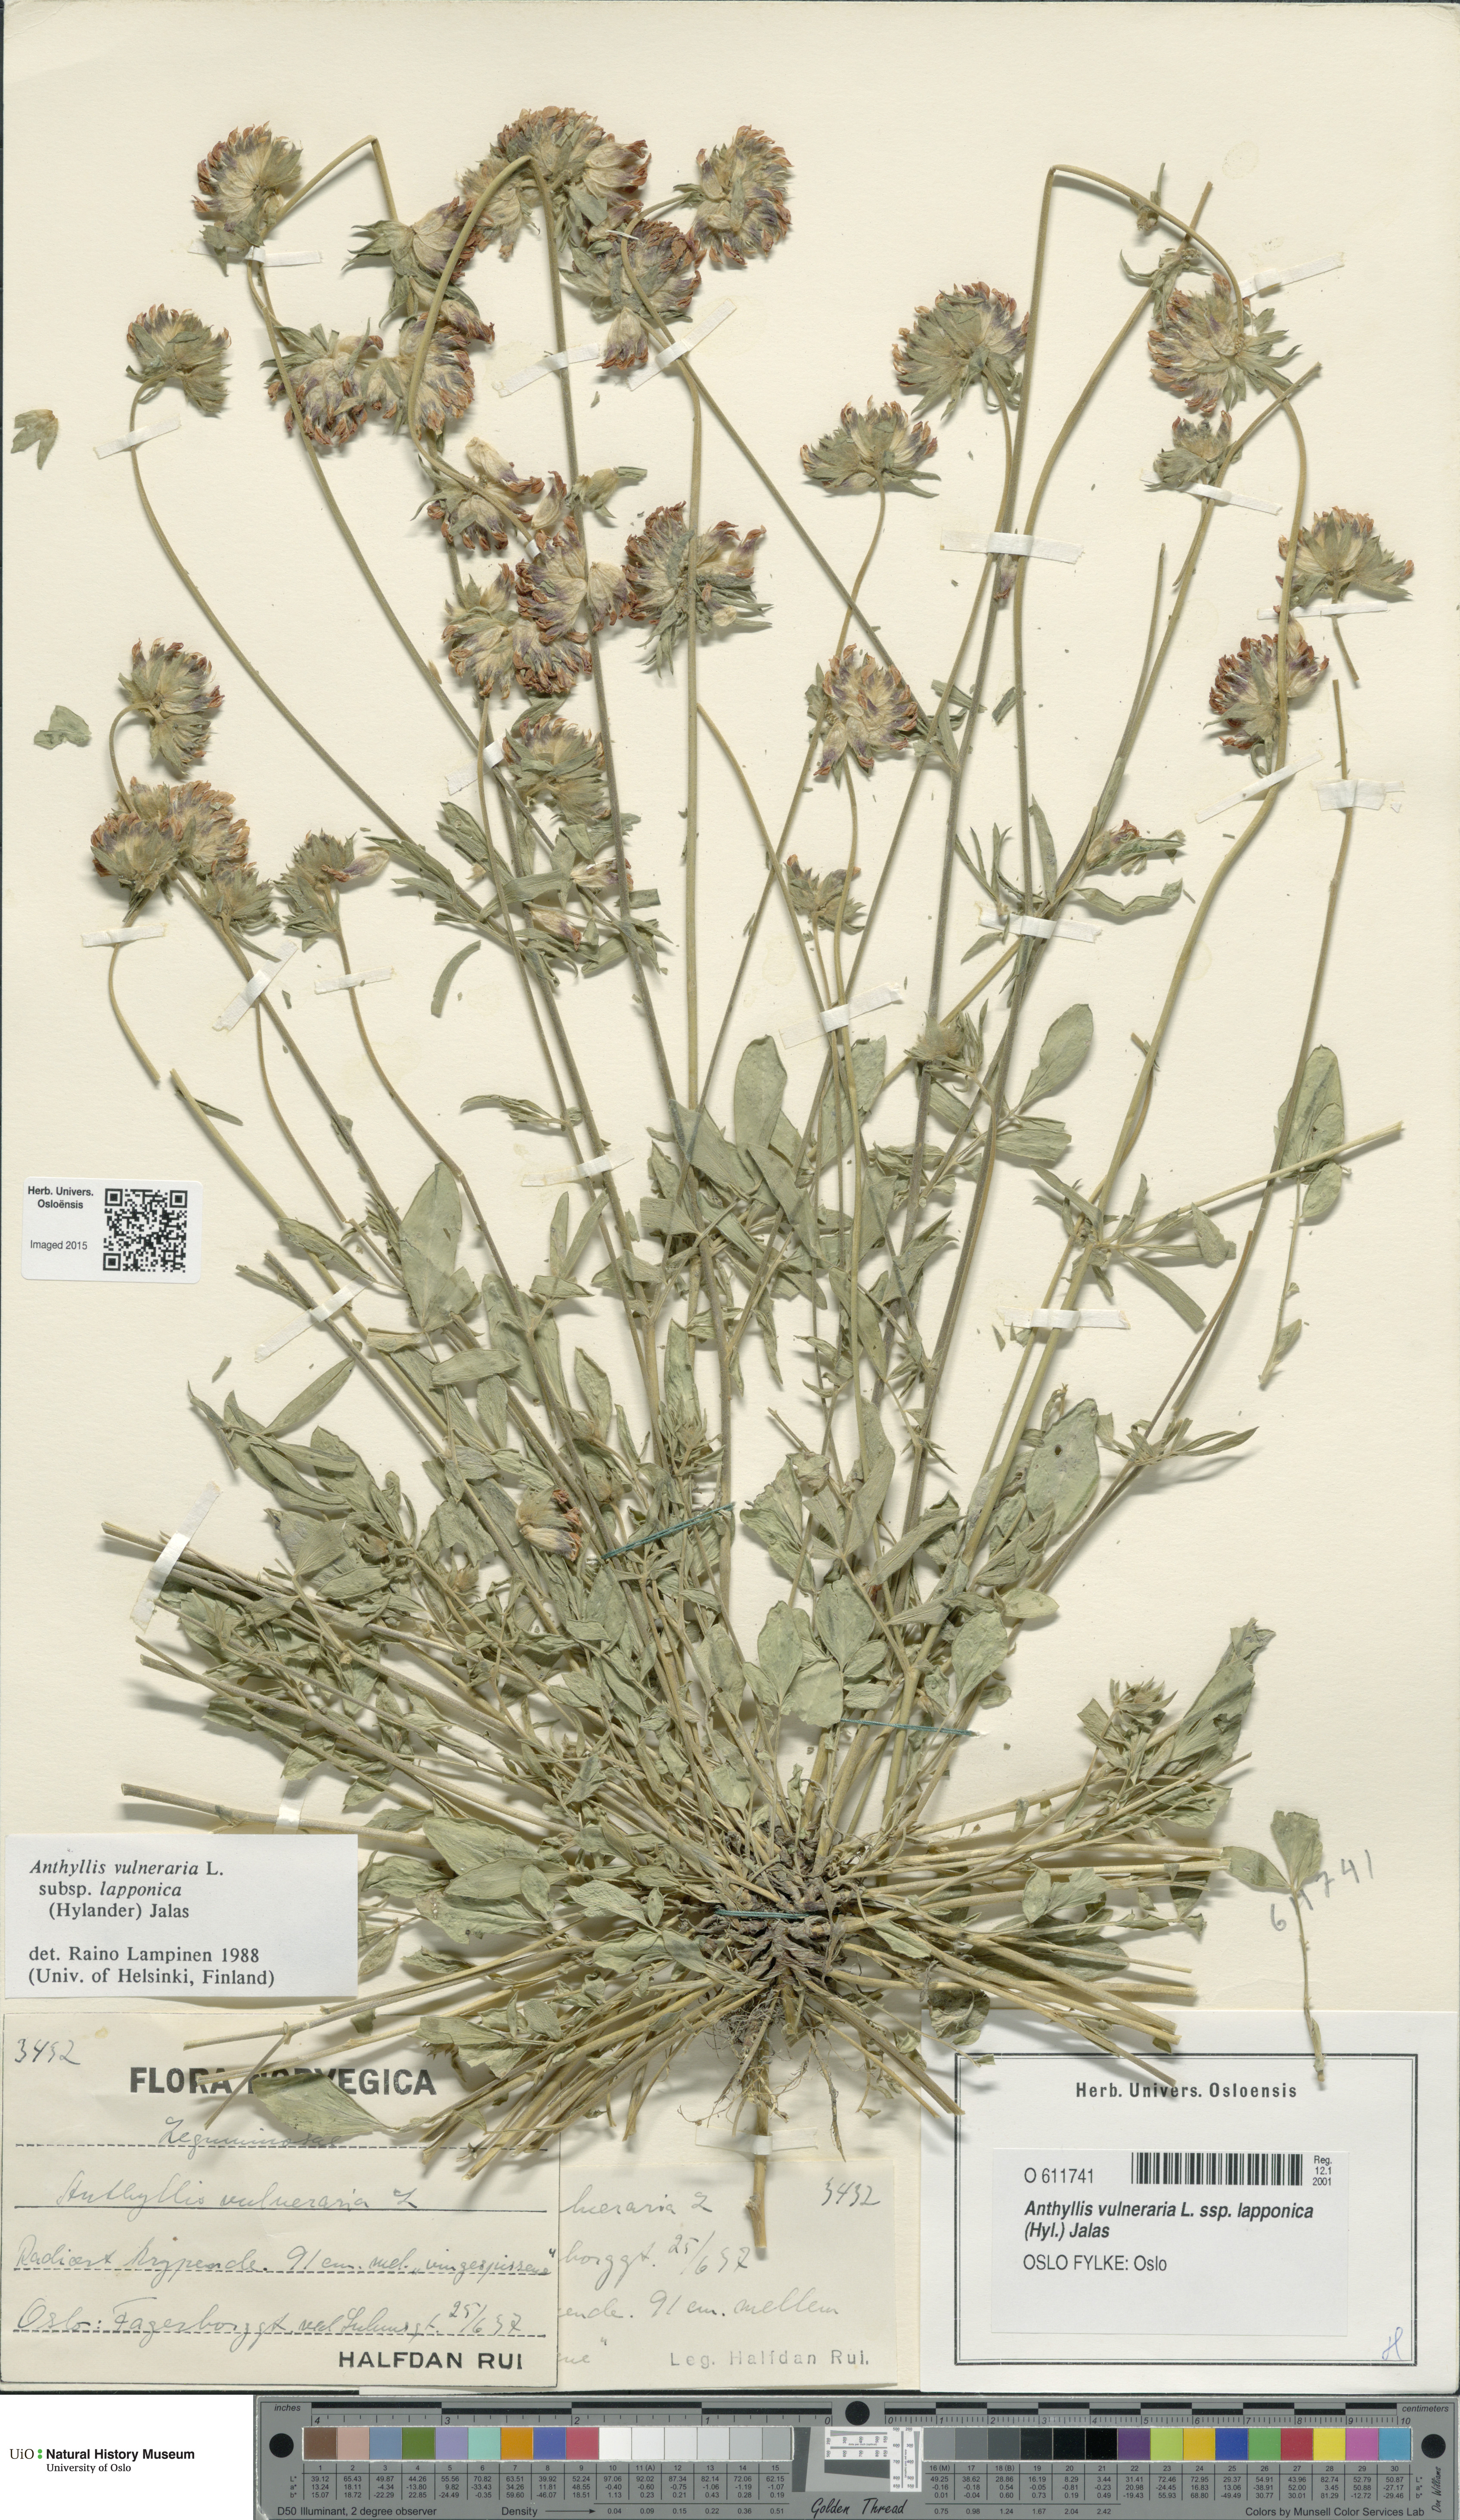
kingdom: Plantae
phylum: Tracheophyta
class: Magnoliopsida
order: Fabales
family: Fabaceae
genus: Anthyllis
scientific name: Anthyllis vulneraria
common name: Kidney vetch
